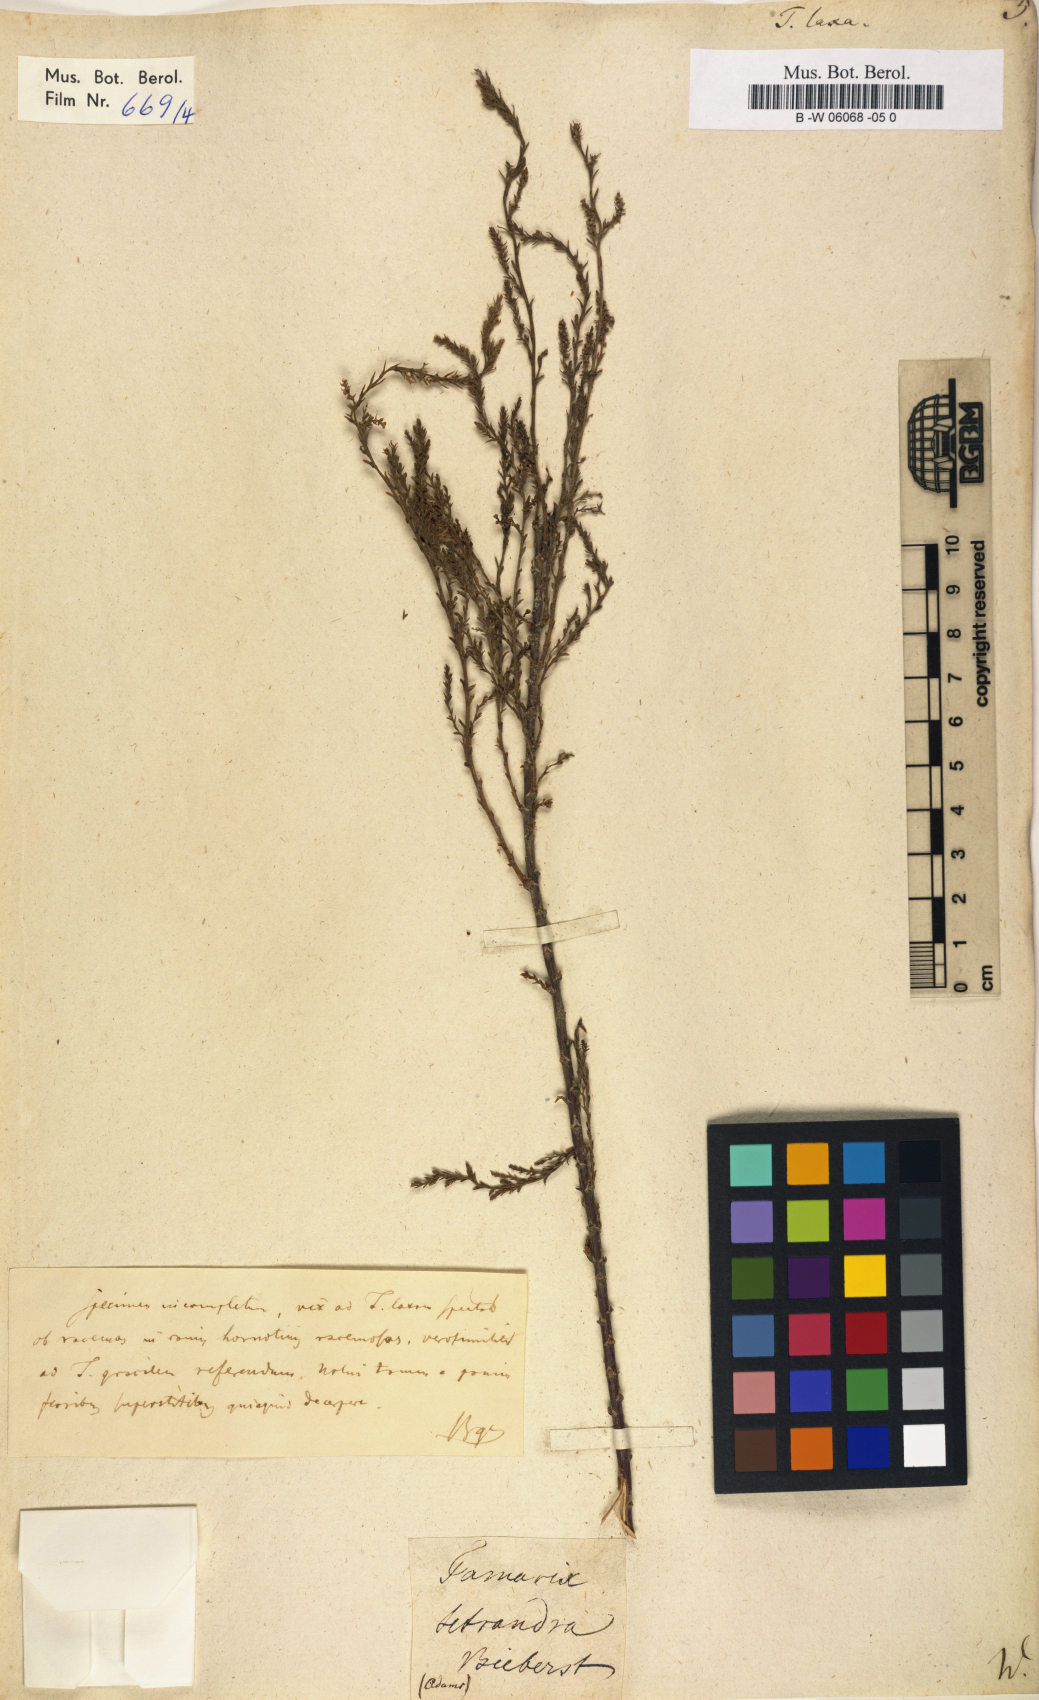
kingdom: Plantae
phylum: Tracheophyta
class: Magnoliopsida
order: Caryophyllales
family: Tamaricaceae
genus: Tamarix
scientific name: Tamarix laxa
